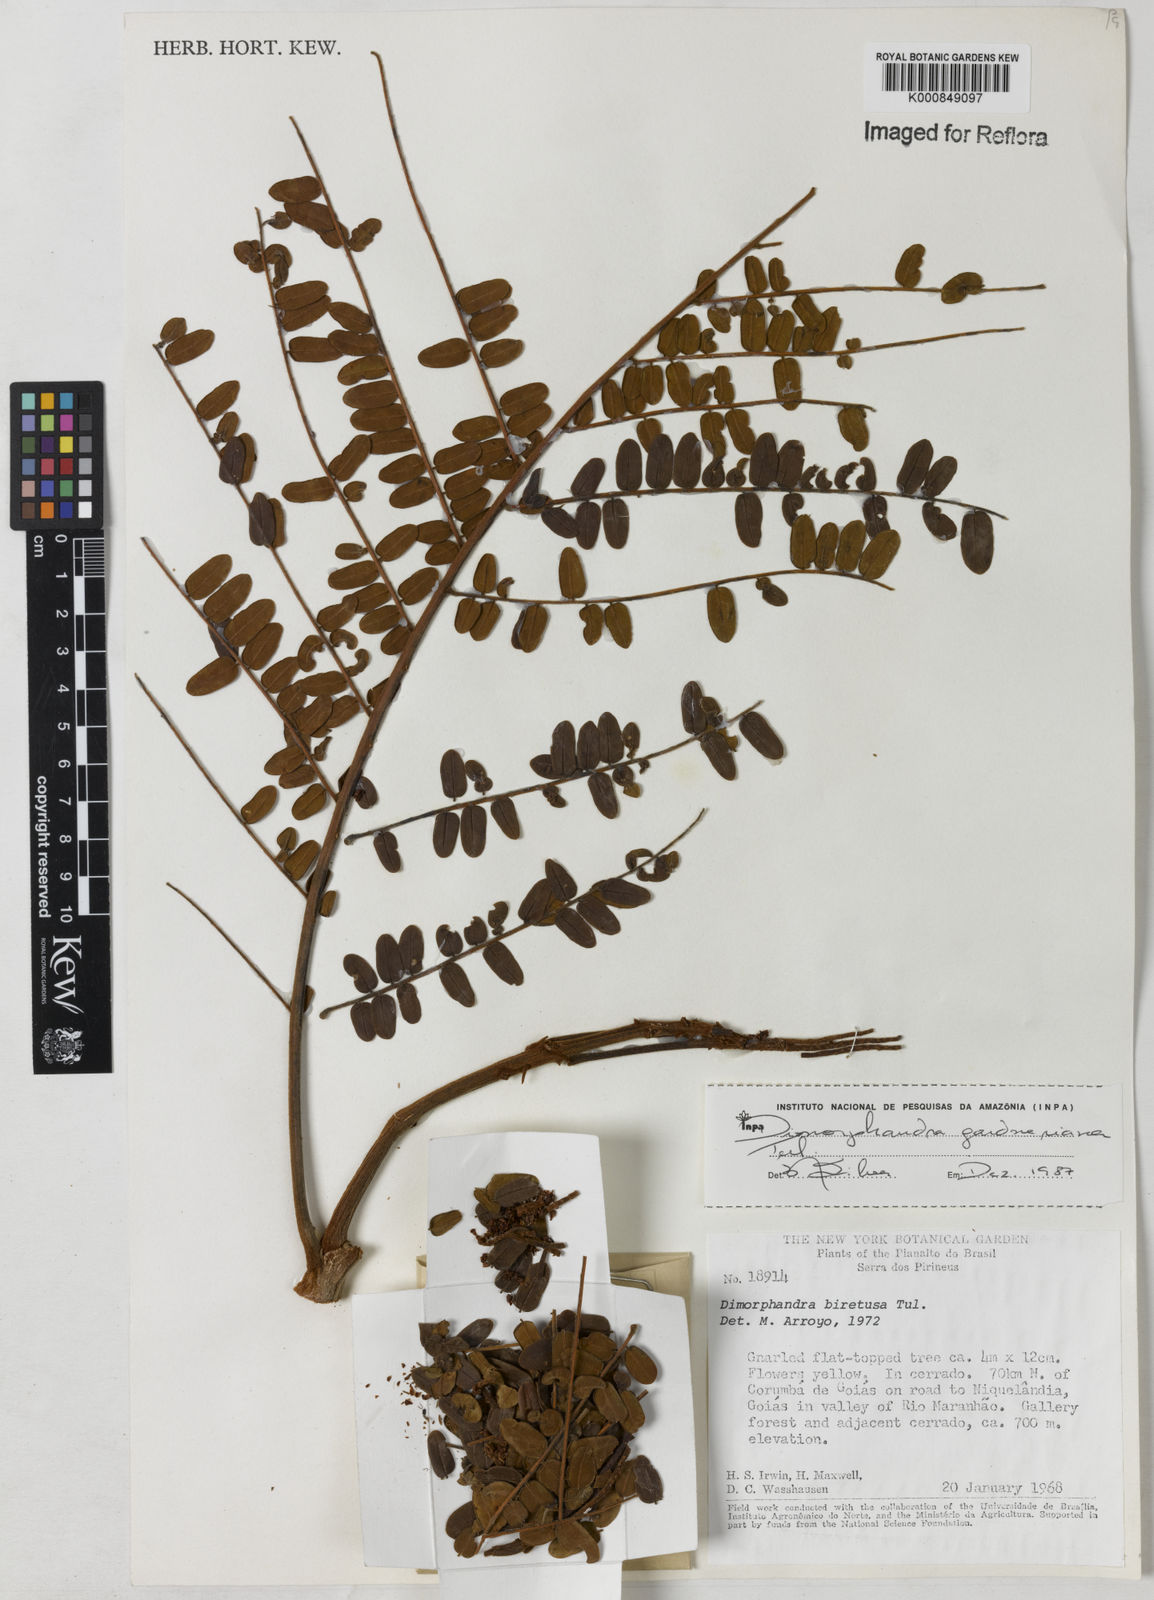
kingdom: Plantae
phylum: Tracheophyta
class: Magnoliopsida
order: Fabales
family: Fabaceae
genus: Dimorphandra
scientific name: Dimorphandra gardneriana
